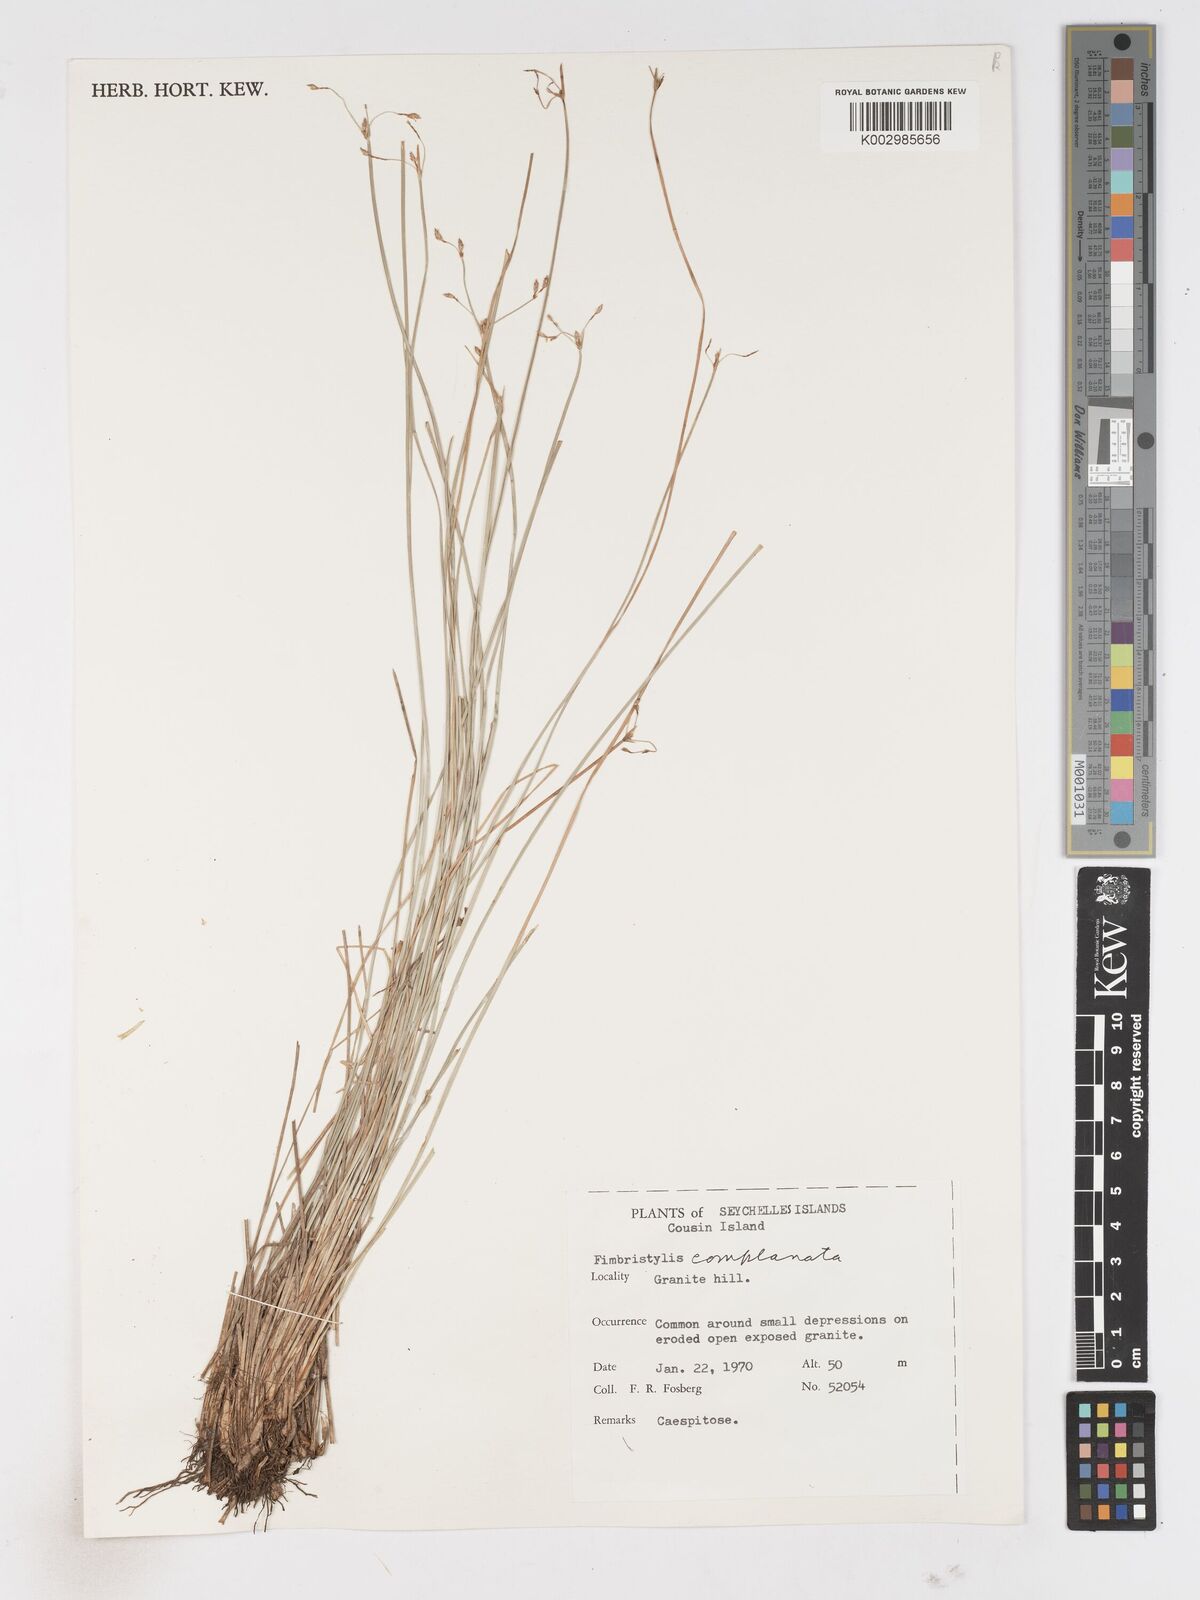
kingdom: Plantae
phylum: Tracheophyta
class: Liliopsida
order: Poales
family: Cyperaceae
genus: Fimbristylis
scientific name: Fimbristylis complanata
